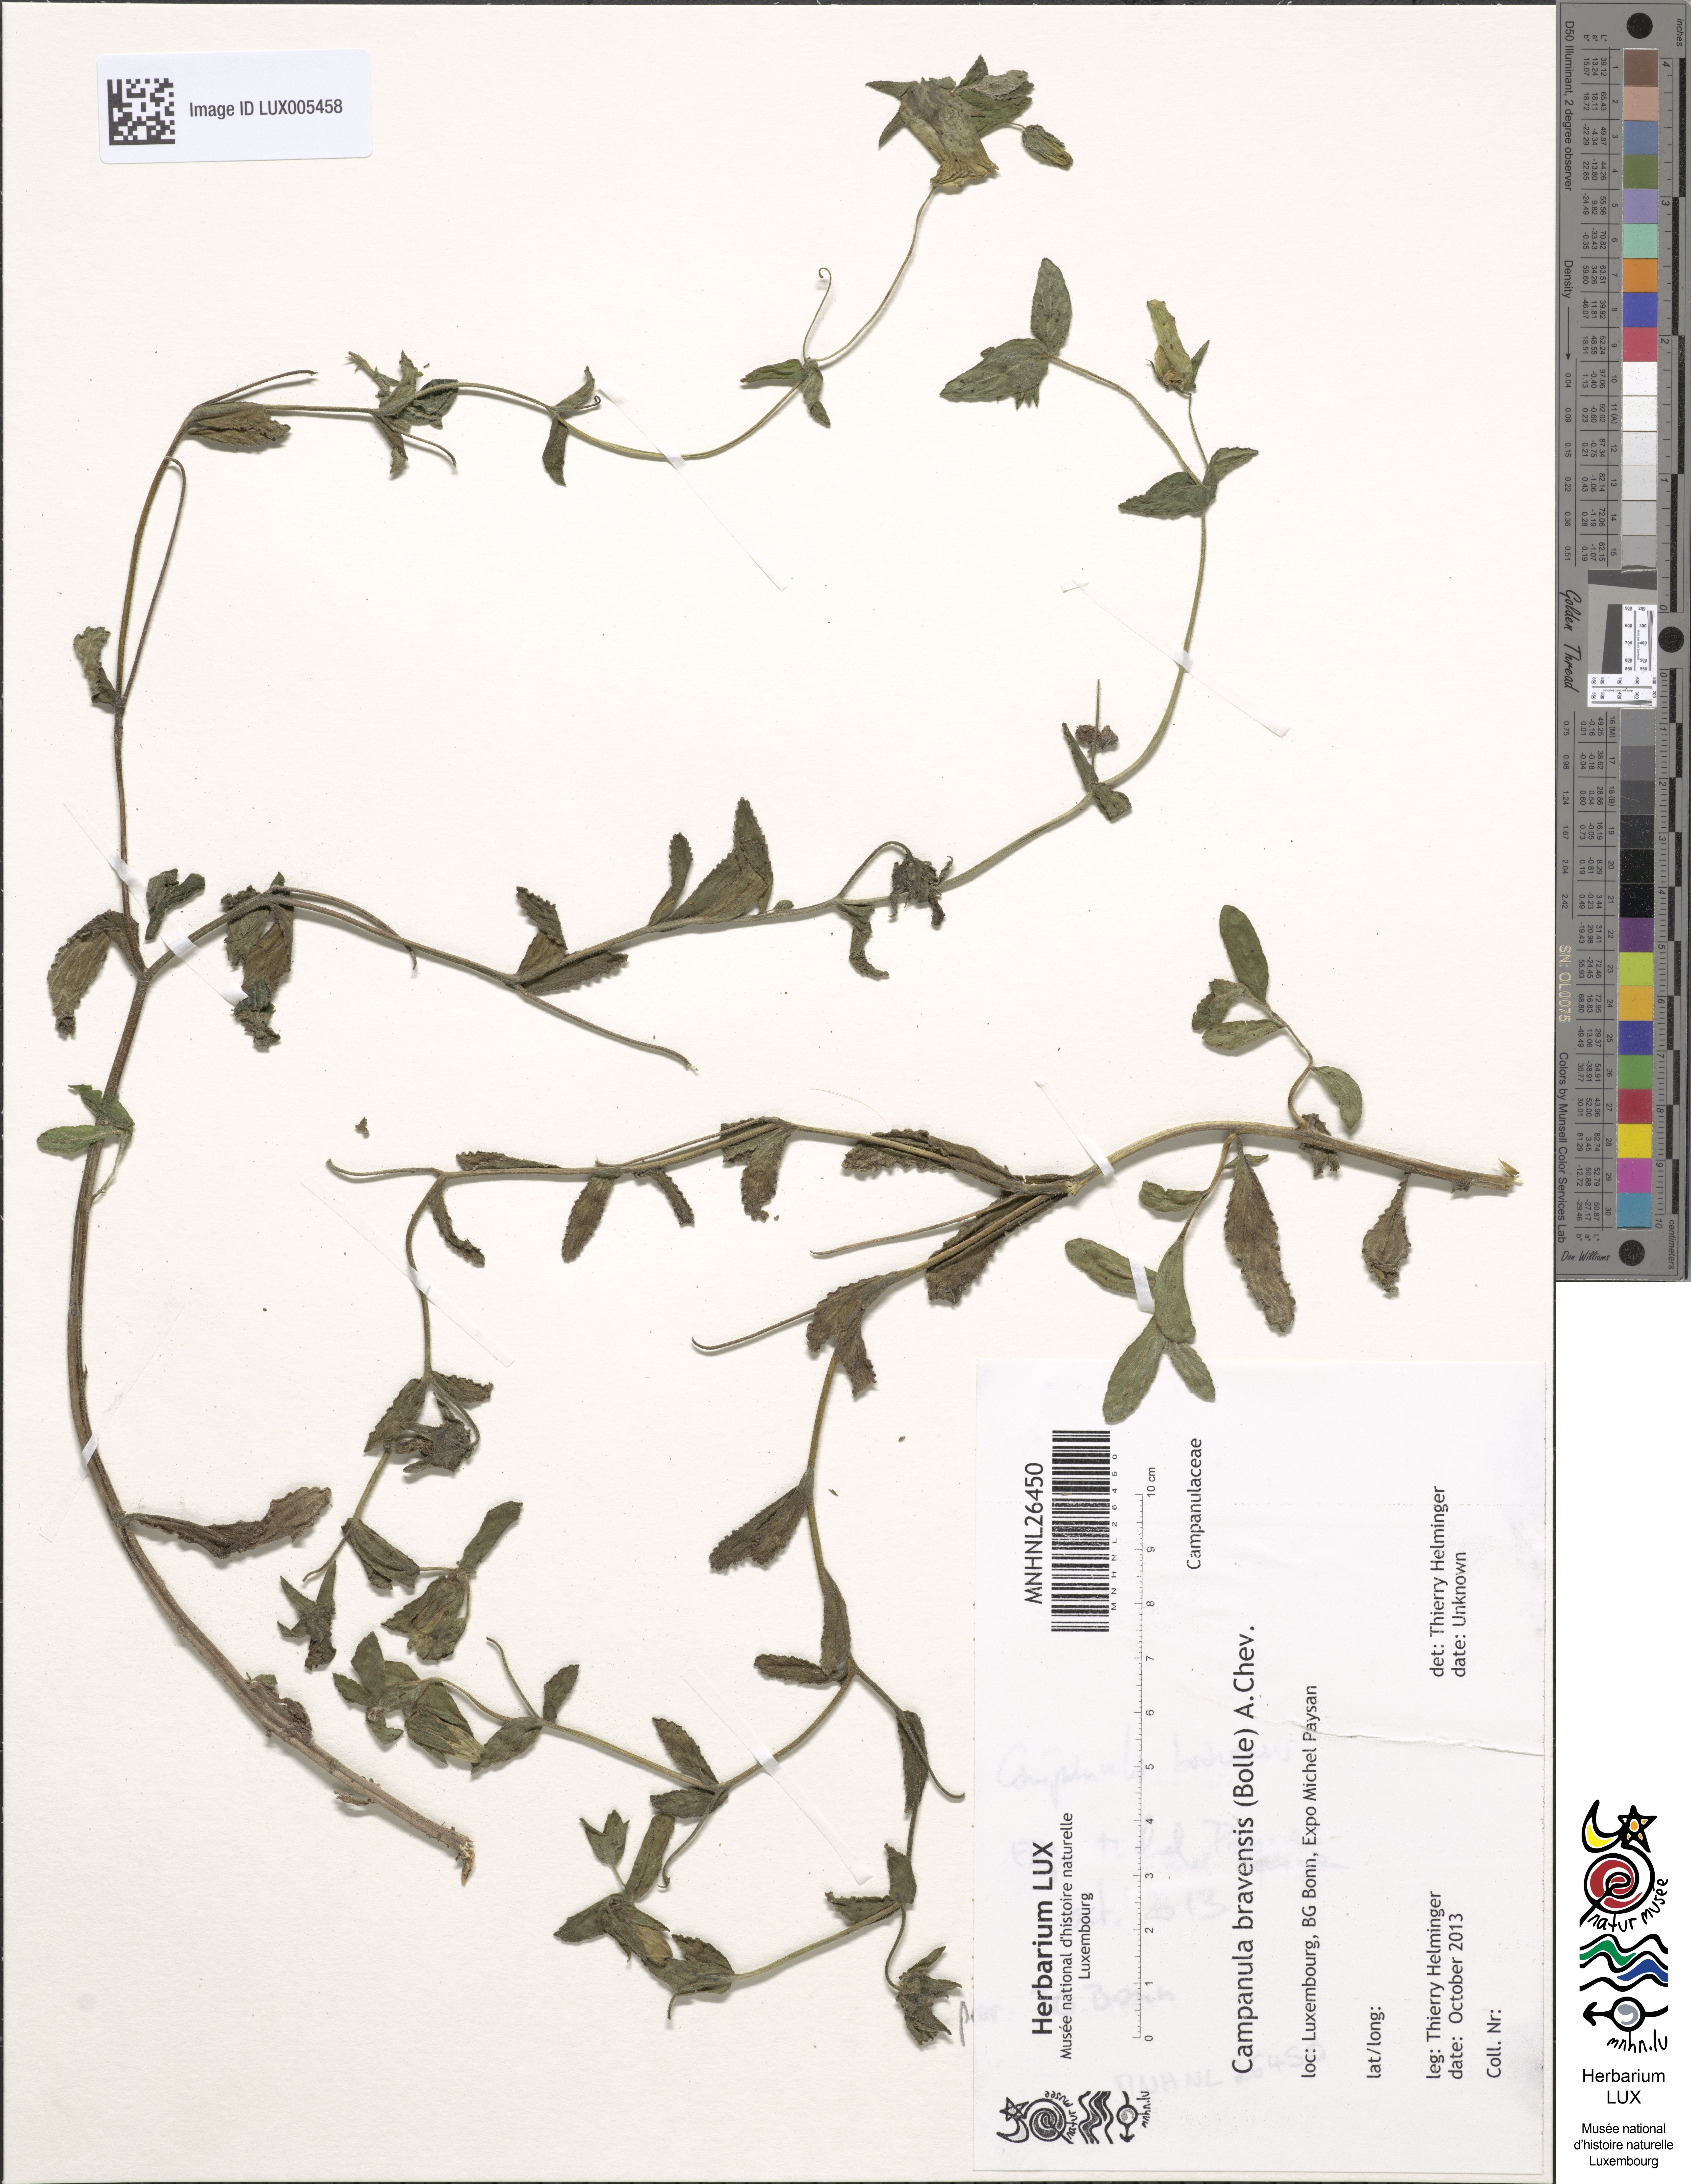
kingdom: Plantae
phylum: Tracheophyta
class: Magnoliopsida
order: Asterales
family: Campanulaceae
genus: Campanula
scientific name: Campanula bravensis
